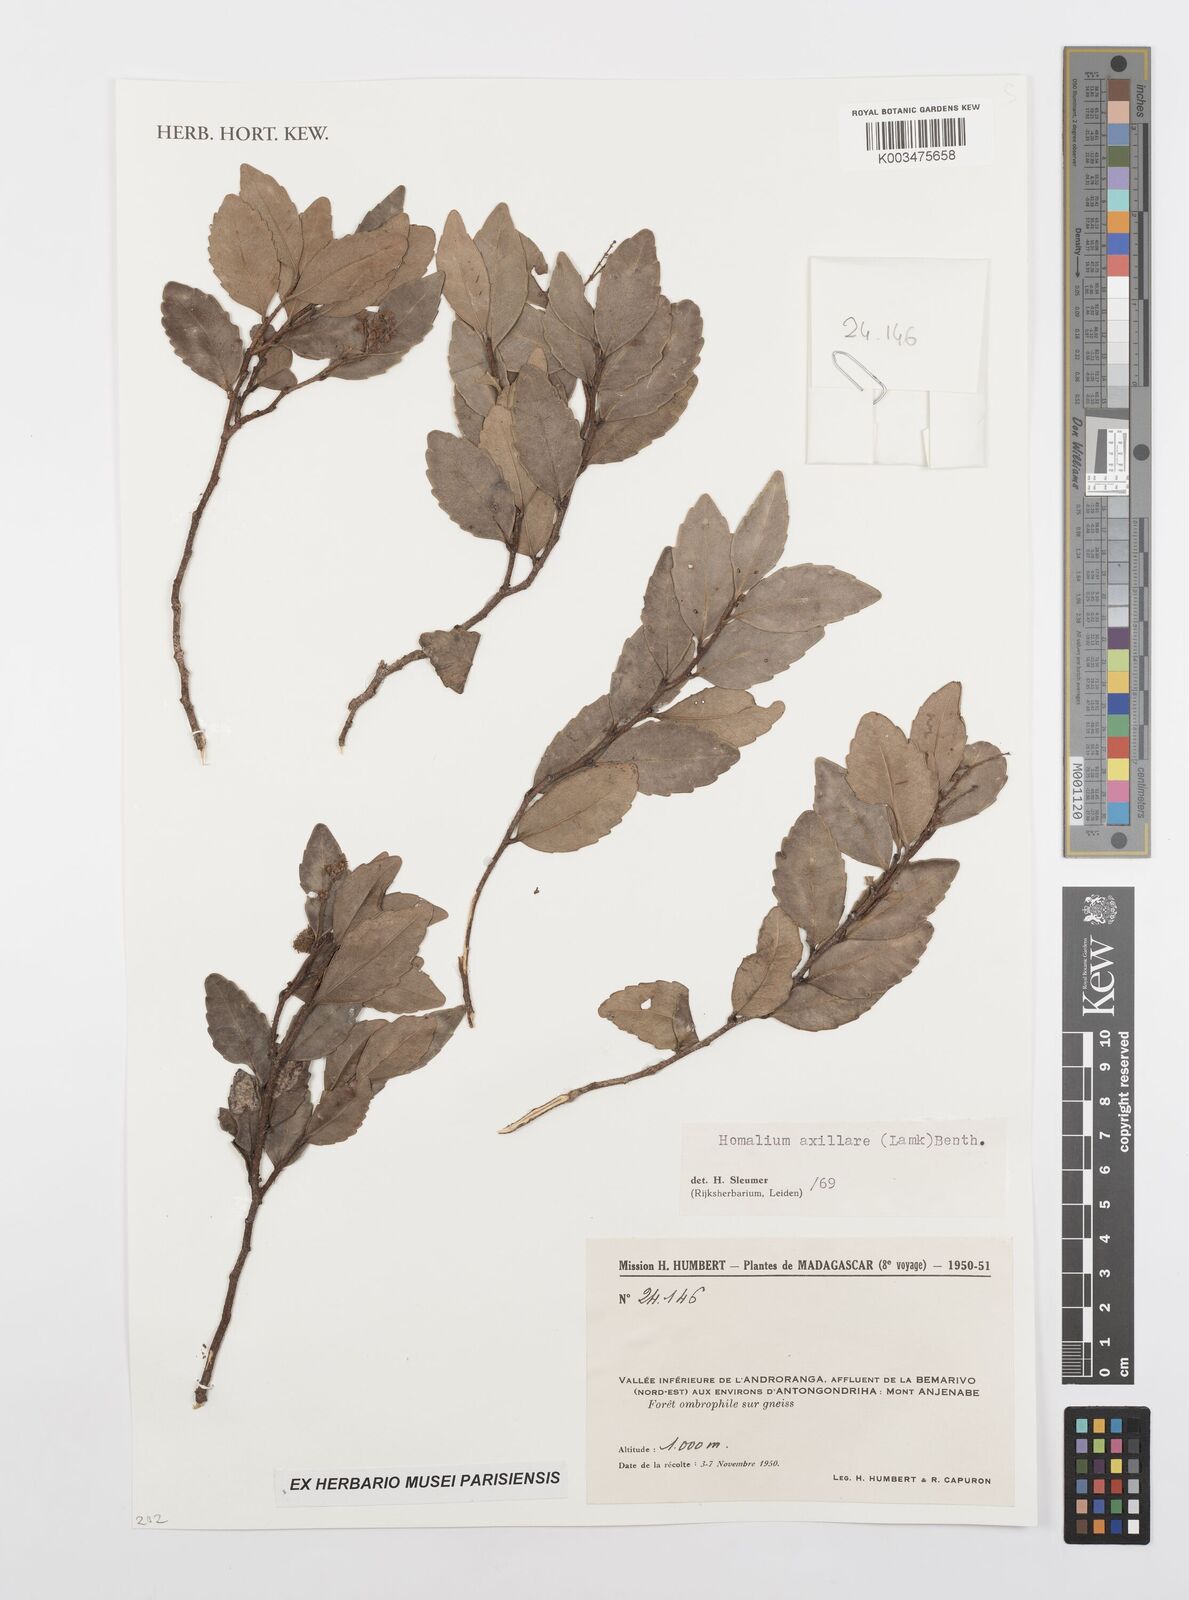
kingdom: Plantae
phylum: Tracheophyta
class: Magnoliopsida
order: Malpighiales
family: Salicaceae
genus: Homalium
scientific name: Homalium axillare
